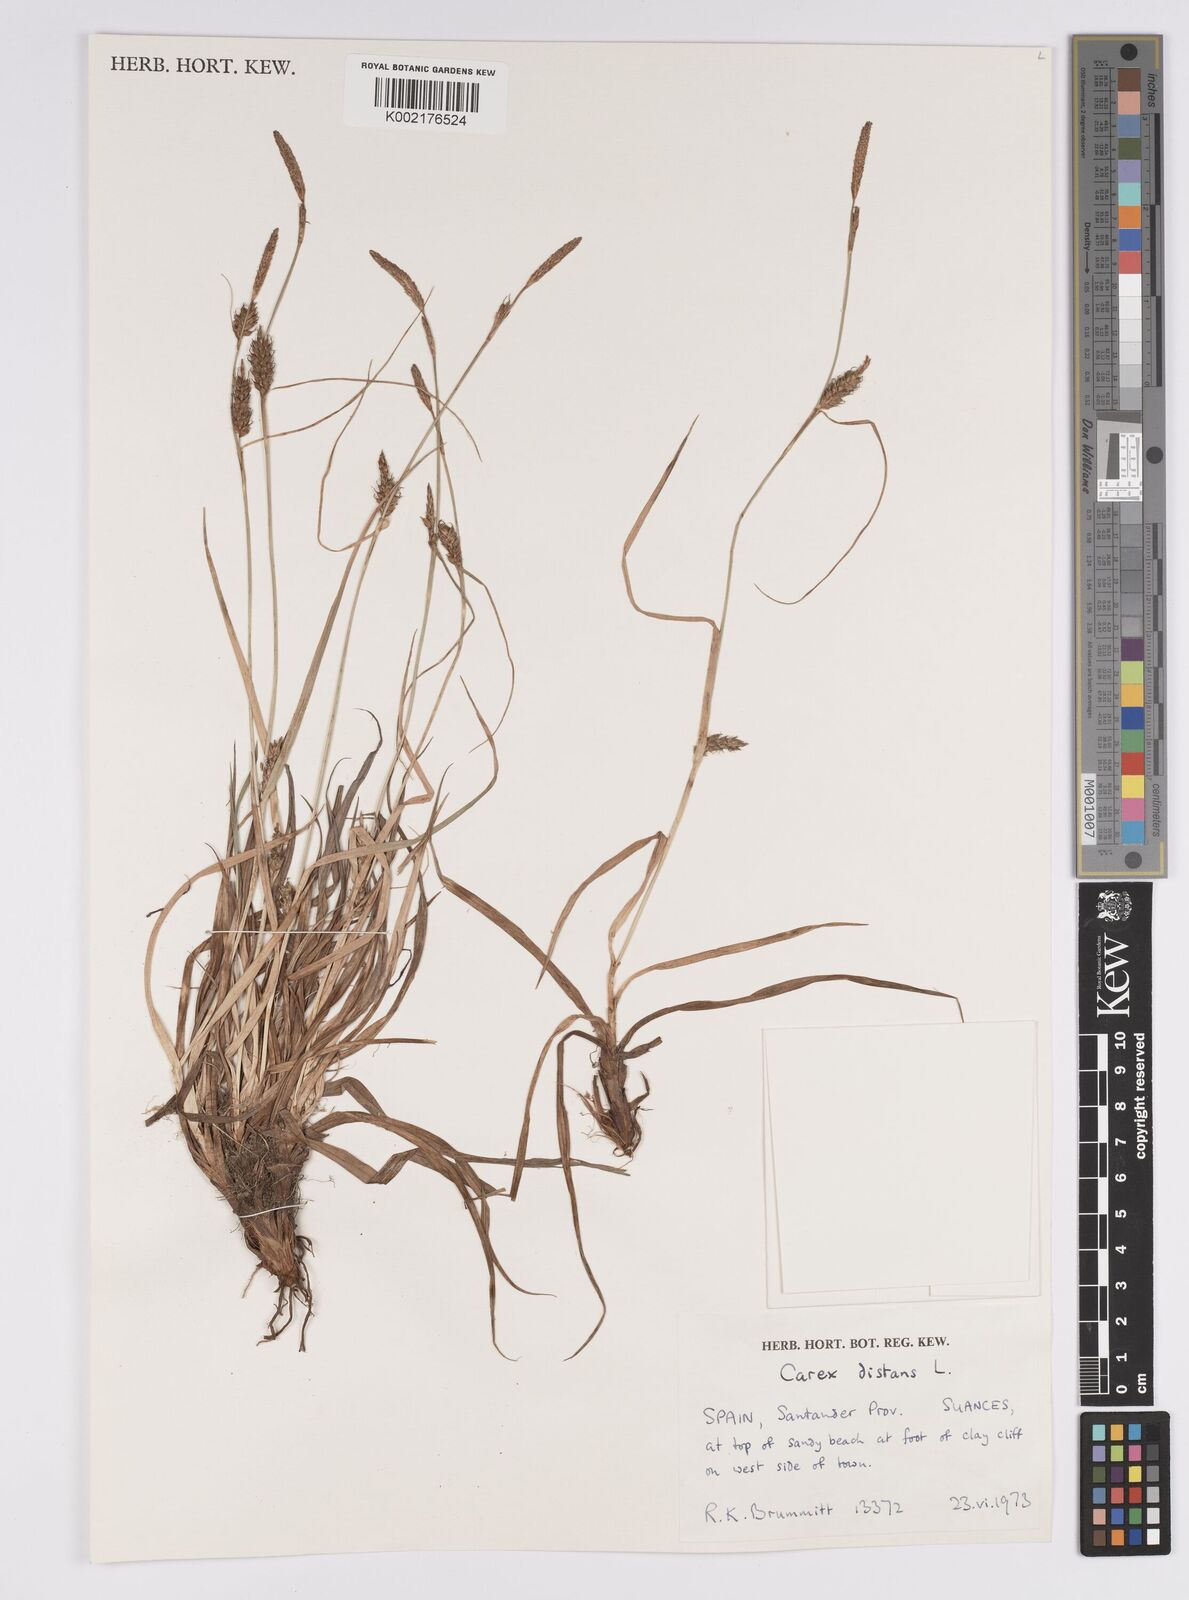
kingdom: Plantae
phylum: Tracheophyta
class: Liliopsida
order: Poales
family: Cyperaceae
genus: Carex
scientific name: Carex distans
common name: Distant sedge
